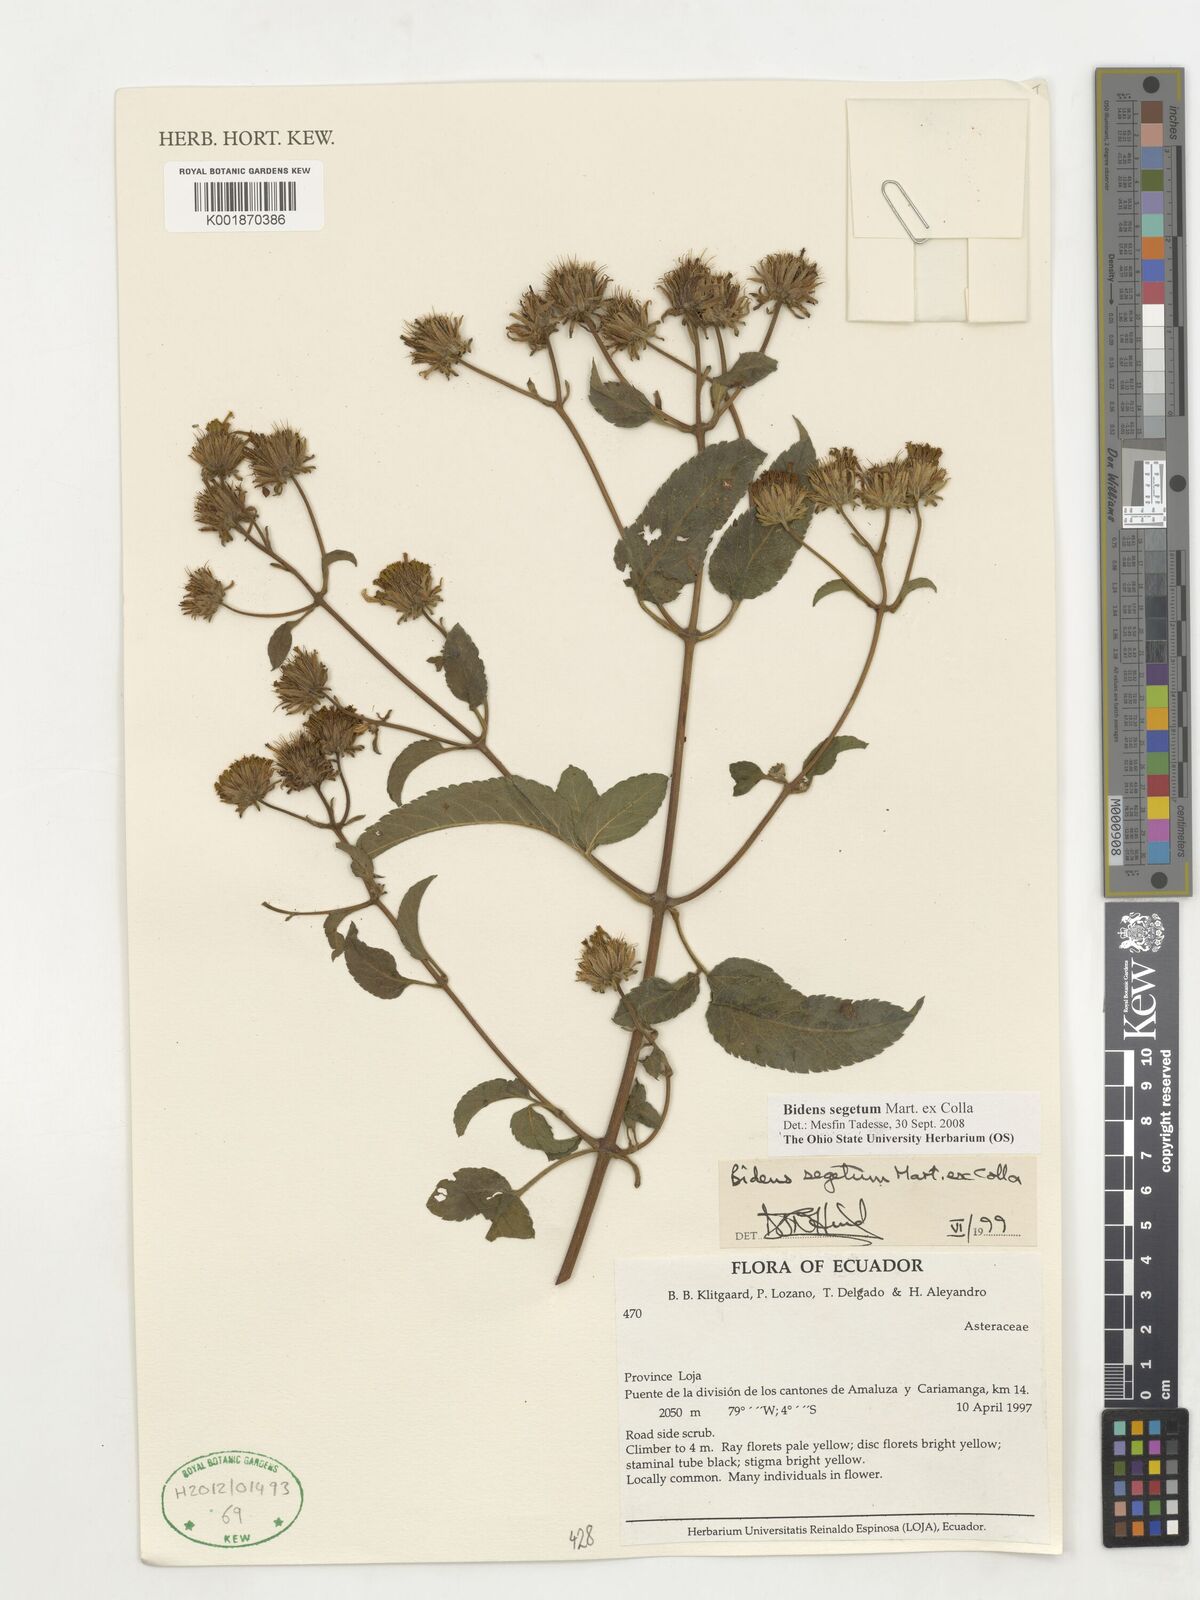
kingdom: Plantae
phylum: Tracheophyta
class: Magnoliopsida
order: Asterales
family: Asteraceae
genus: Bidens
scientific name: Bidens segetum
